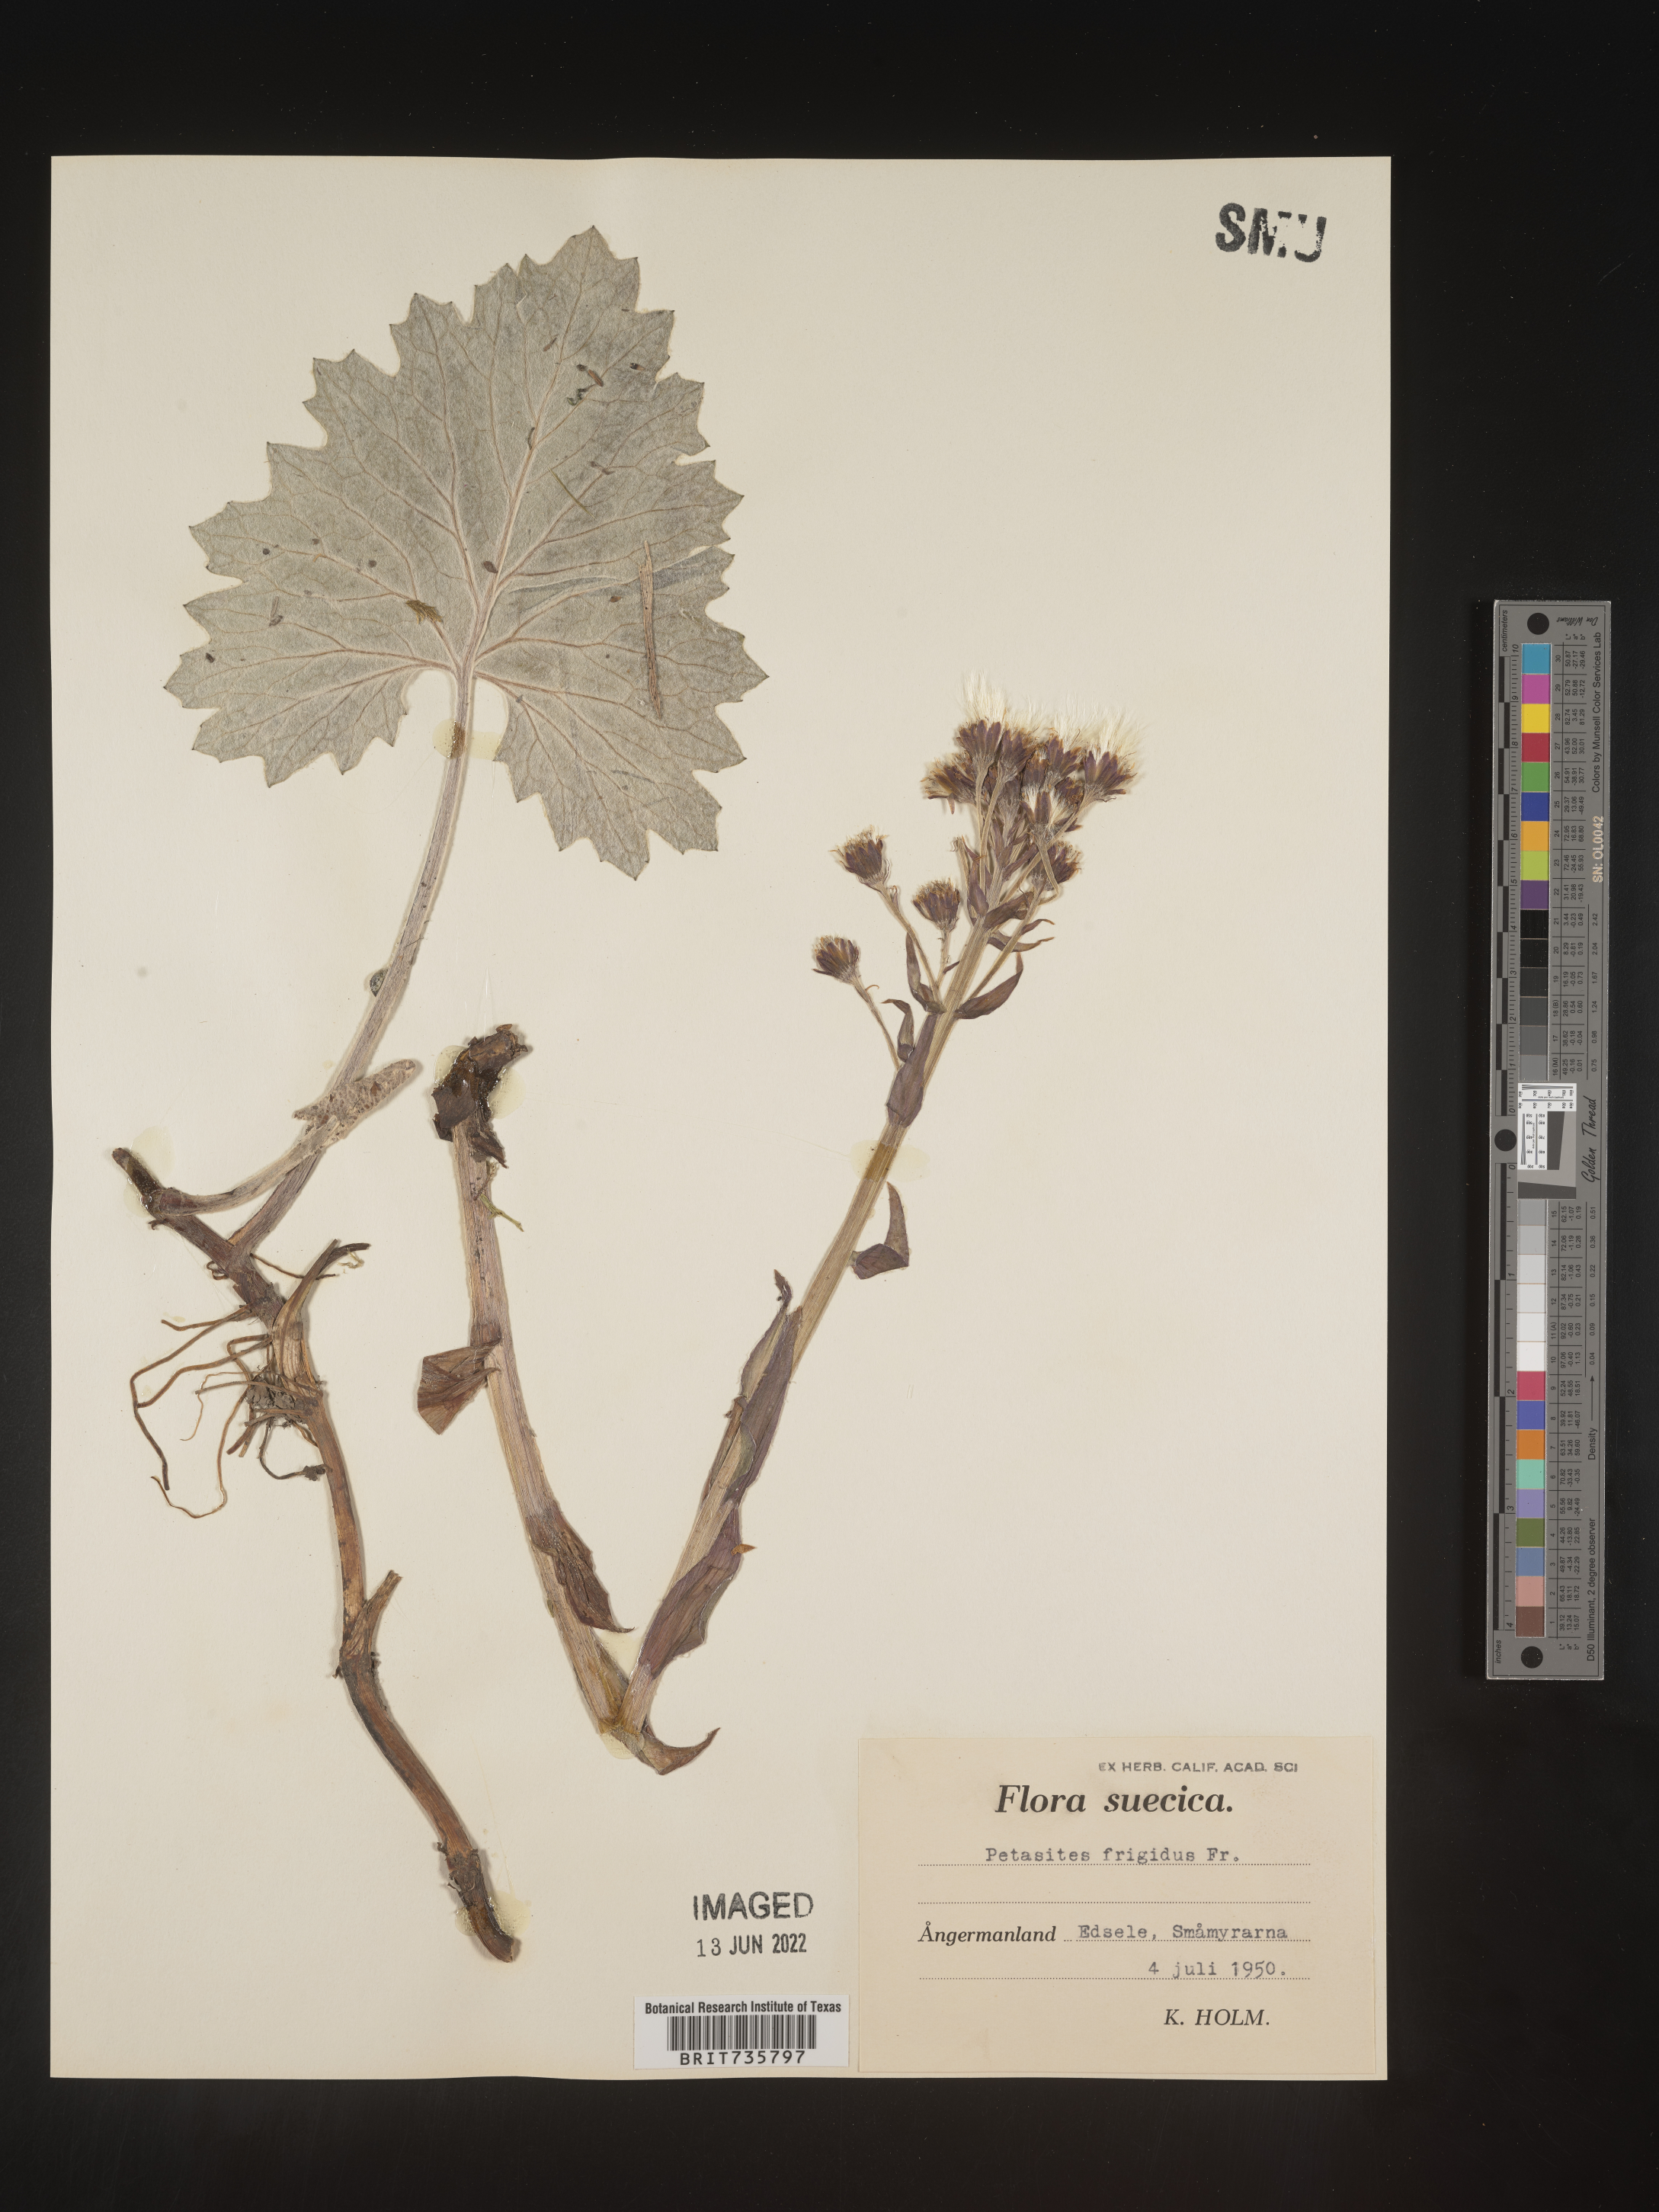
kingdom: Plantae
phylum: Tracheophyta
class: Magnoliopsida
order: Asterales
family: Asteraceae
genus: Petasites
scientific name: Petasites
